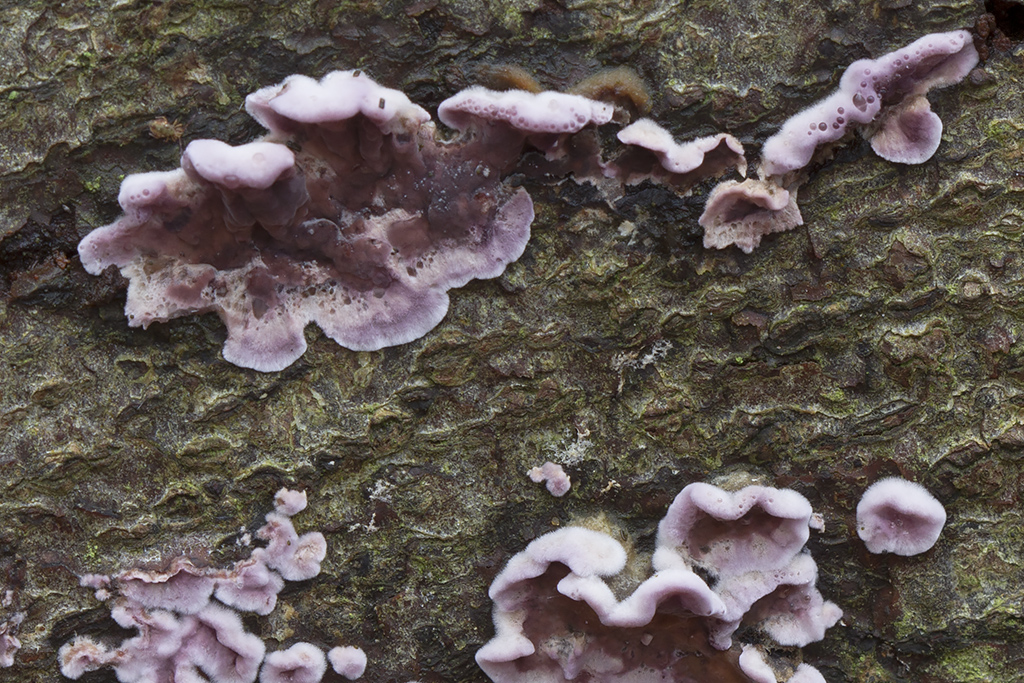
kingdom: Fungi
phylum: Basidiomycota
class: Agaricomycetes
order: Agaricales
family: Cyphellaceae
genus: Chondrostereum
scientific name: Chondrostereum purpureum
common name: purpurlædersvamp
